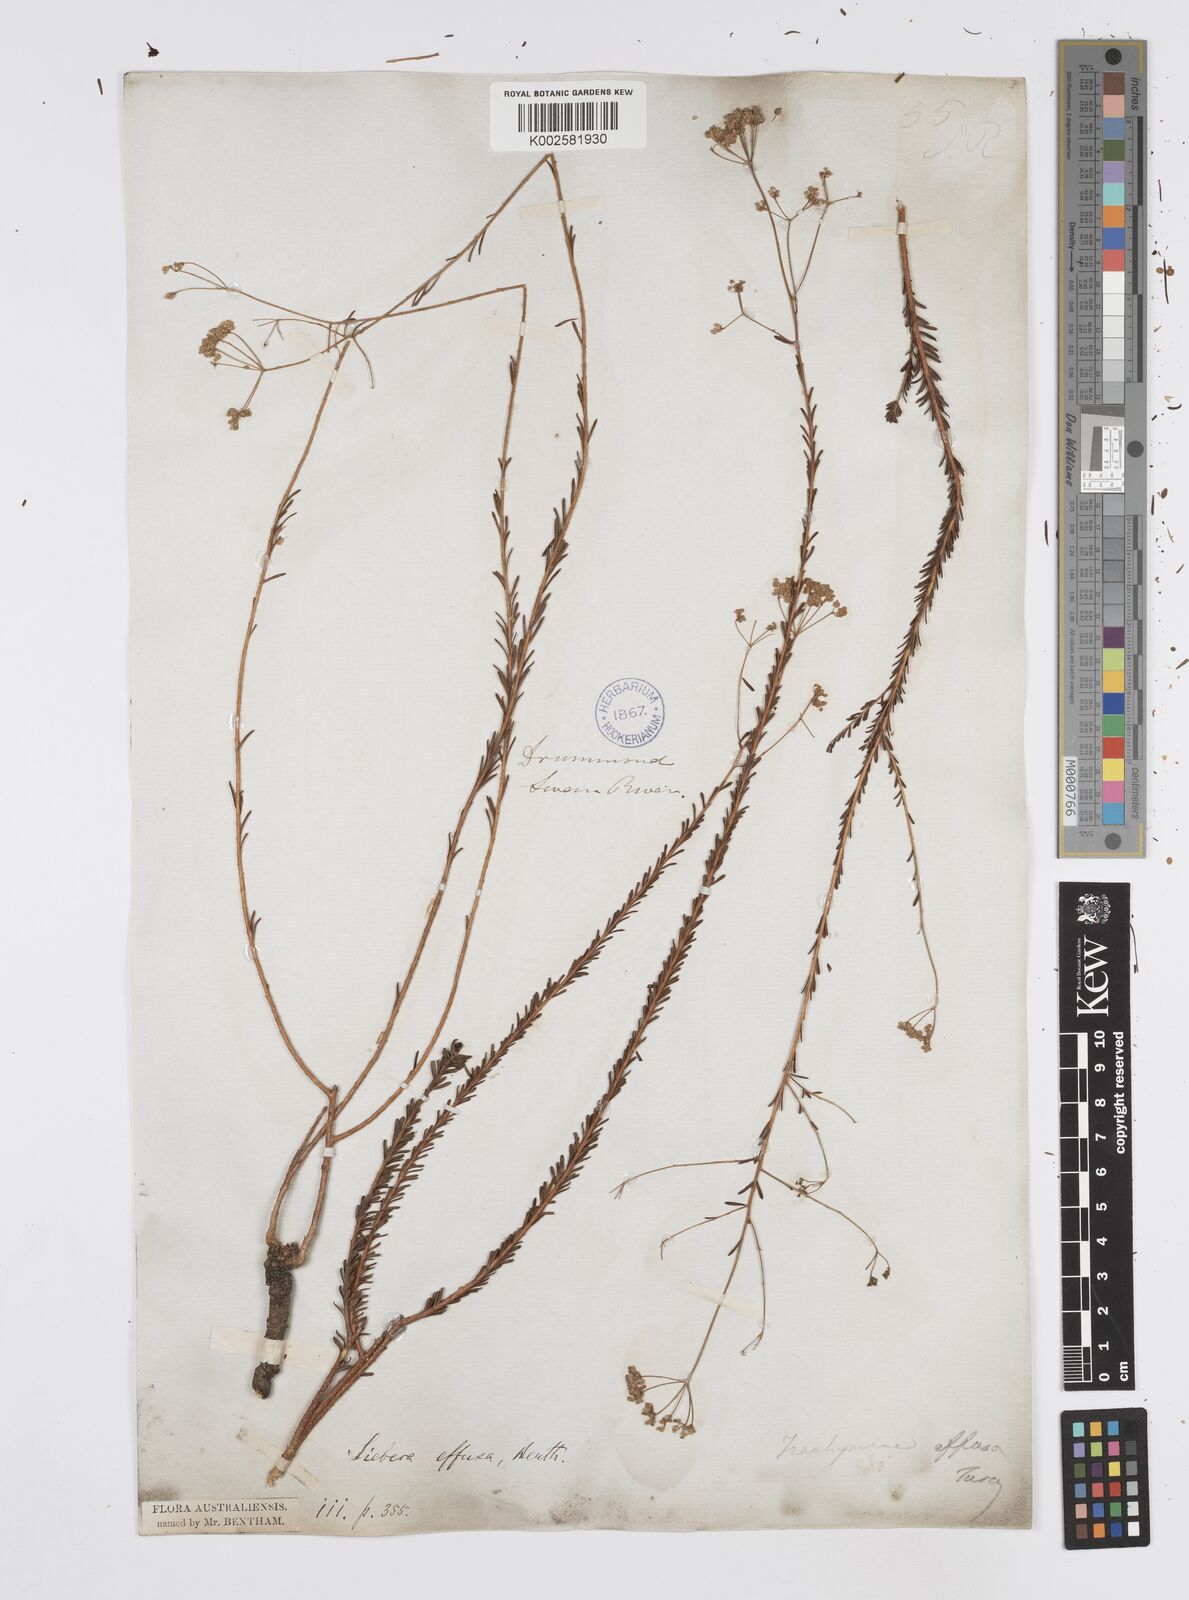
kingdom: Plantae
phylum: Tracheophyta
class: Magnoliopsida
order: Apiales
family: Apiaceae
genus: Platysace
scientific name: Platysace effusa
